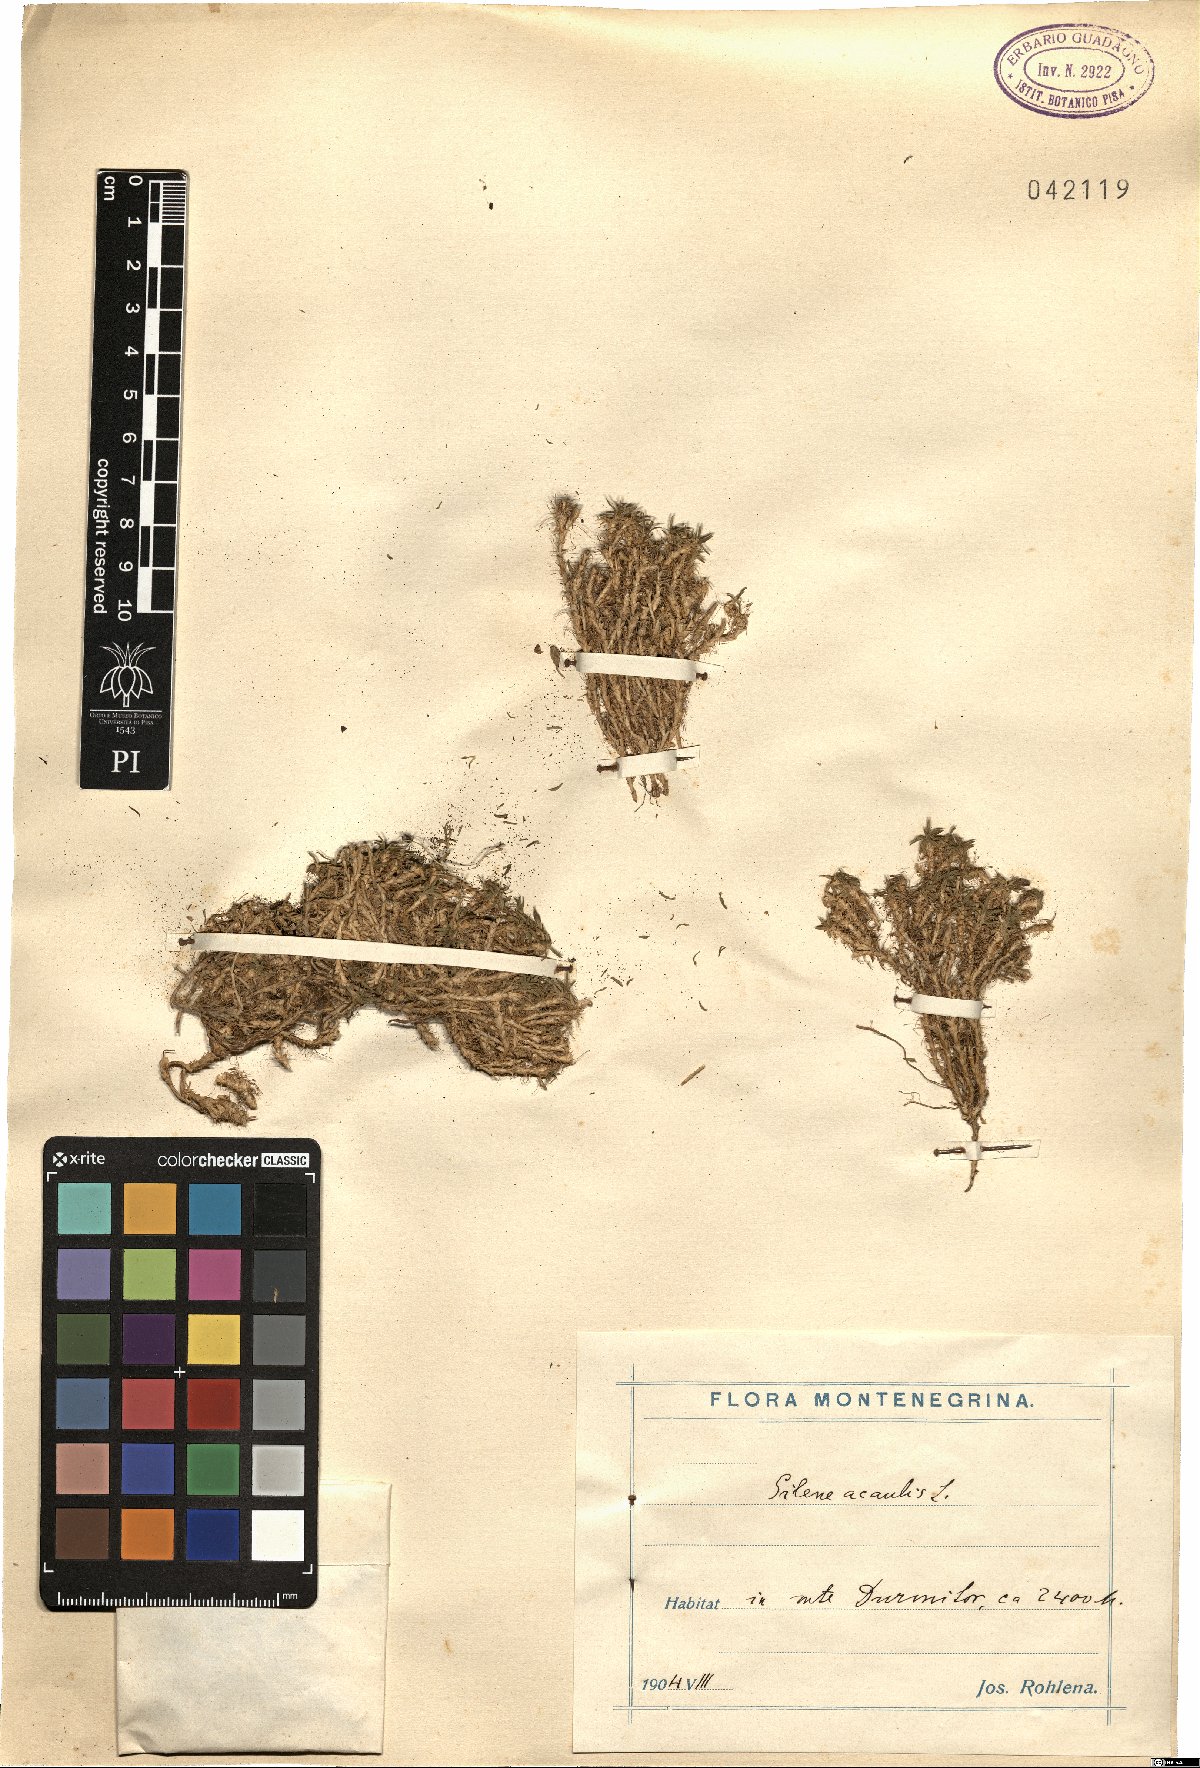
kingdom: Plantae
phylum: Tracheophyta
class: Magnoliopsida
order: Caryophyllales
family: Caryophyllaceae
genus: Silene
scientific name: Silene acaulis
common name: Moss campion
